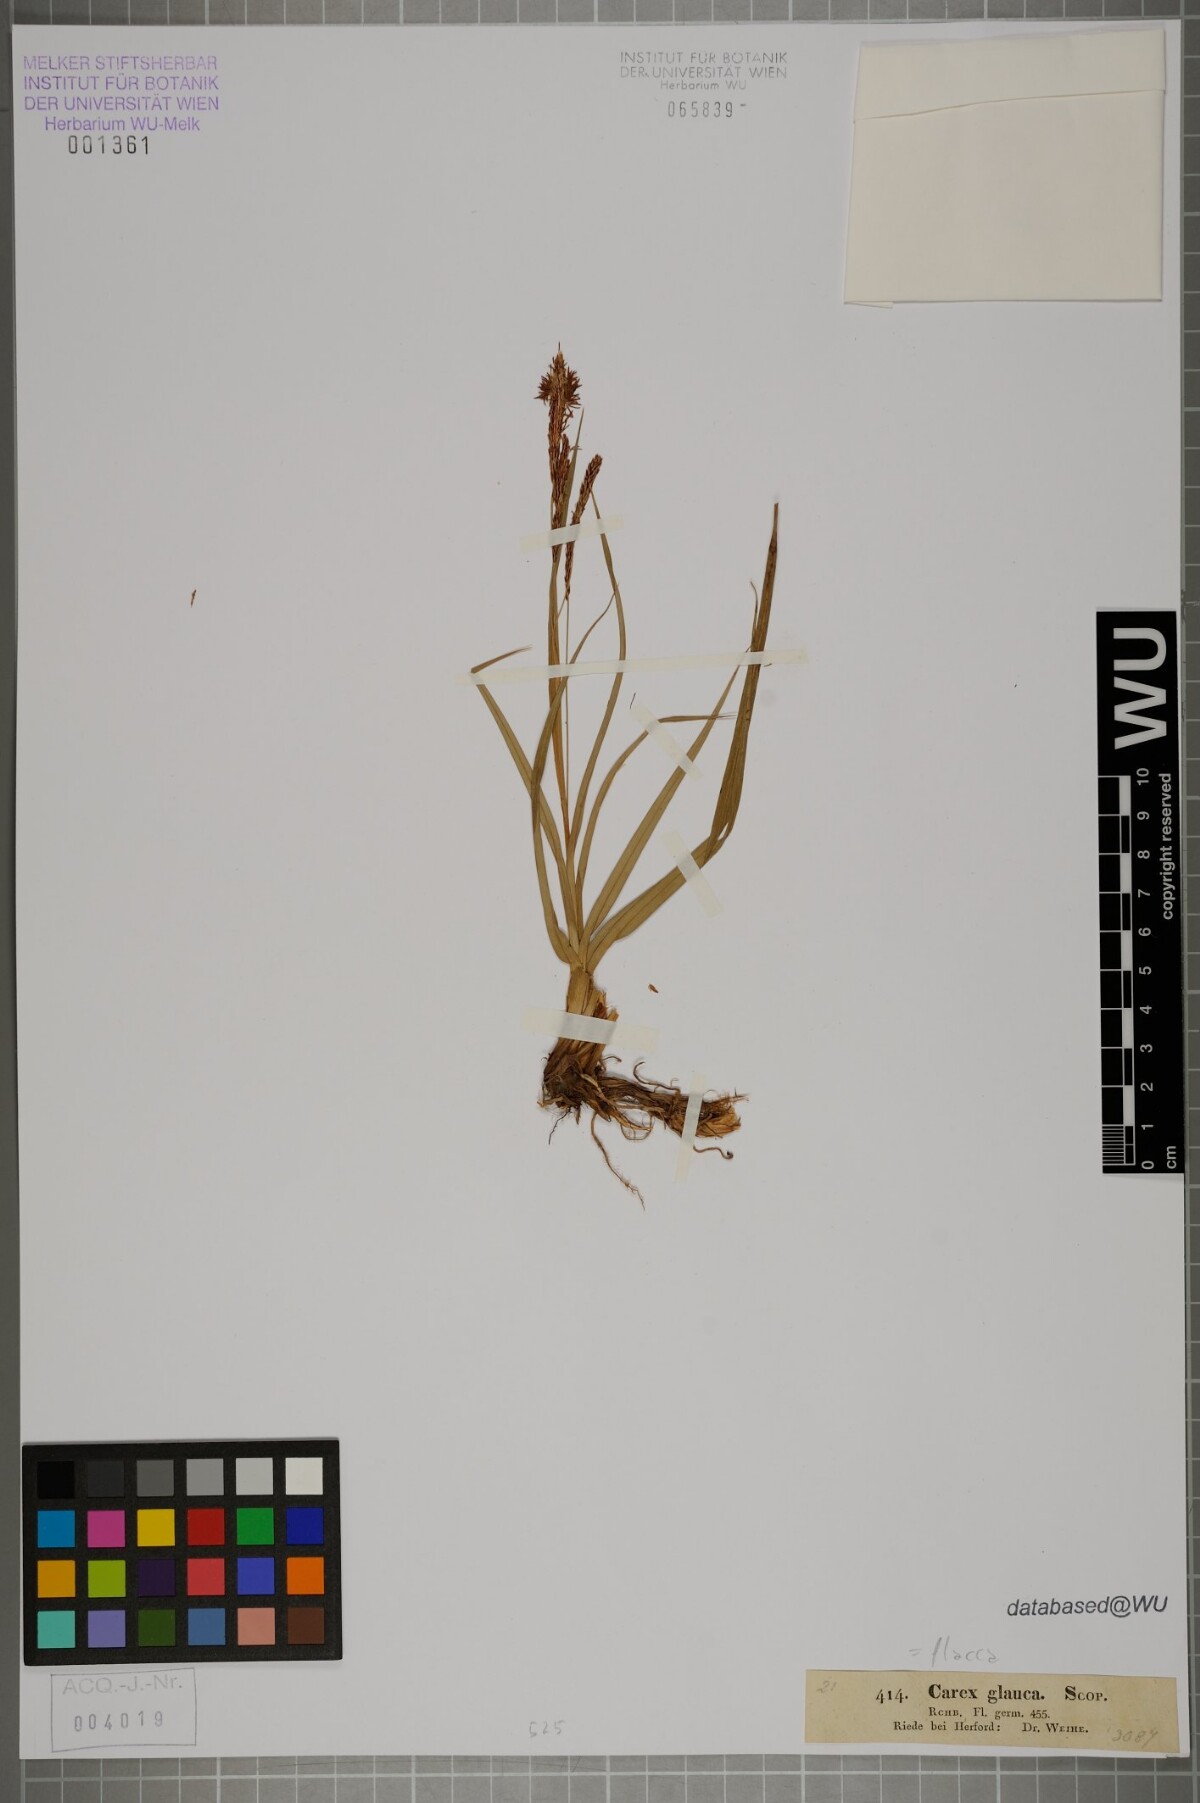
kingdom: Plantae
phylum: Tracheophyta
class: Liliopsida
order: Poales
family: Cyperaceae
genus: Carex
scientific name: Carex flacca
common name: Glaucous sedge
